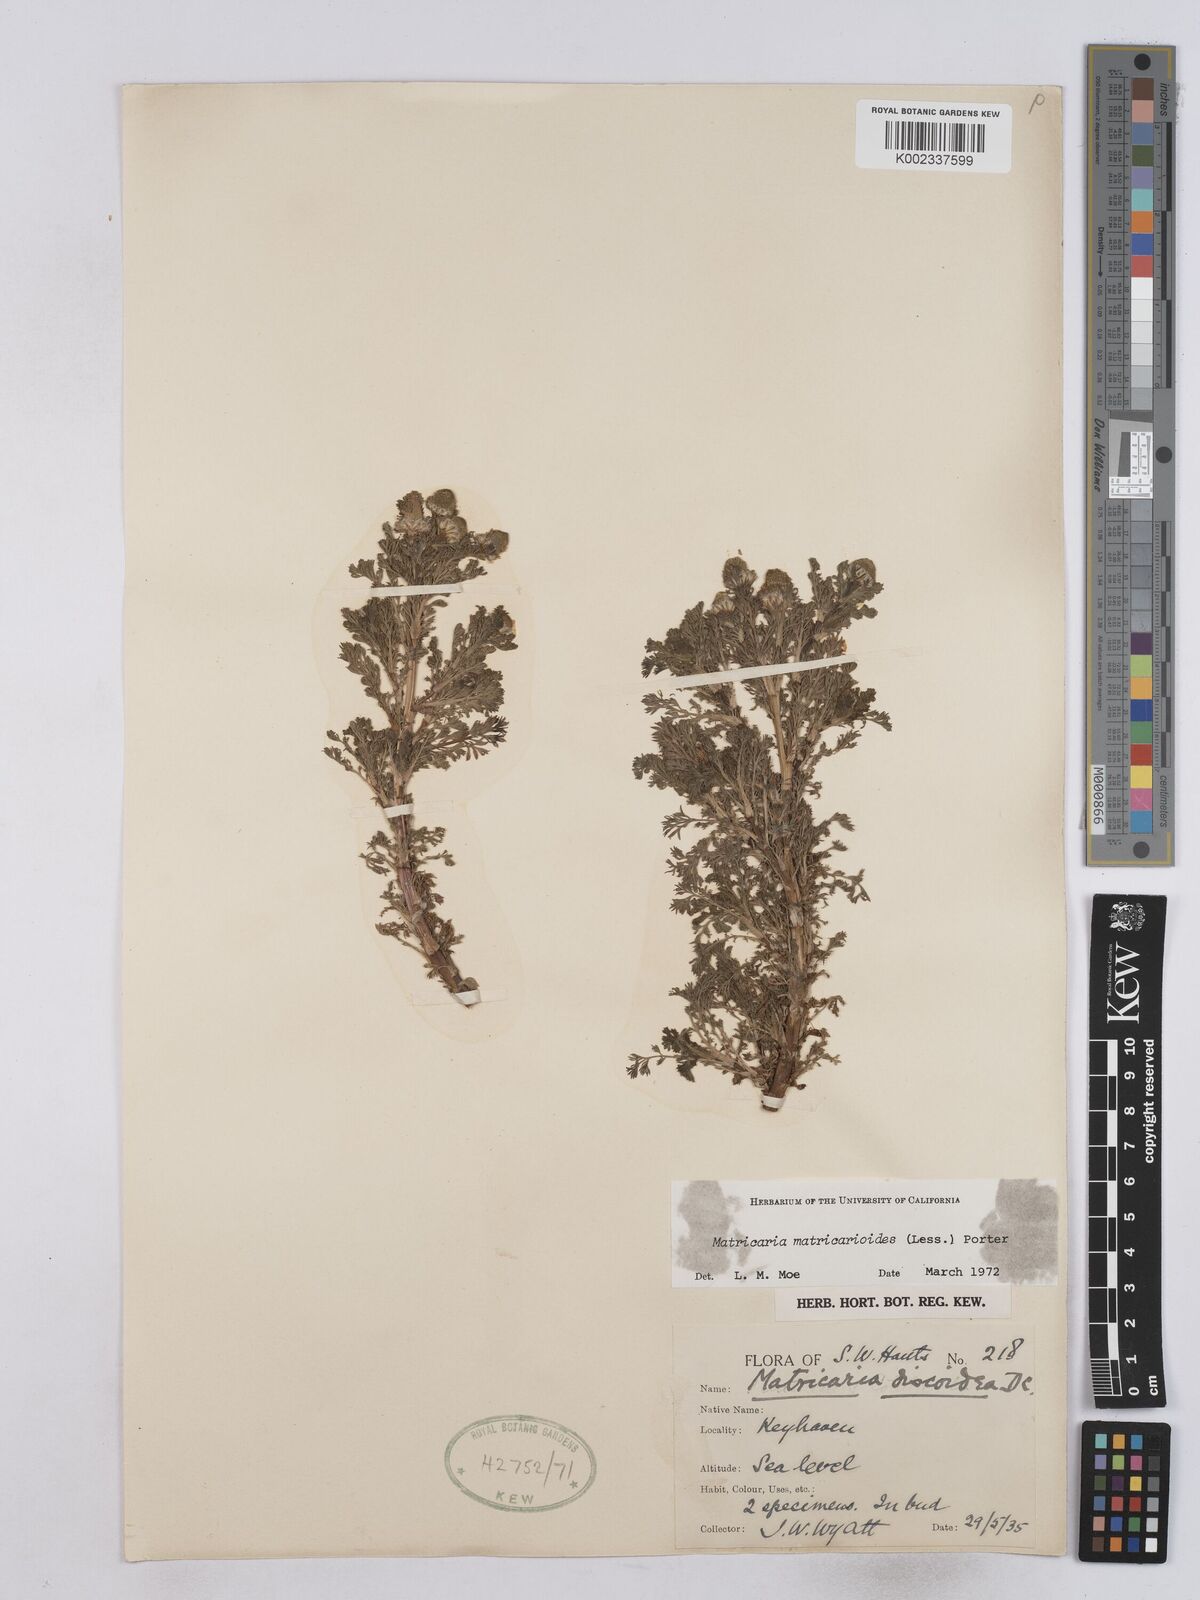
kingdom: Plantae
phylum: Tracheophyta
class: Magnoliopsida
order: Asterales
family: Asteraceae
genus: Matricaria
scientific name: Matricaria discoidea
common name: Disc mayweed
